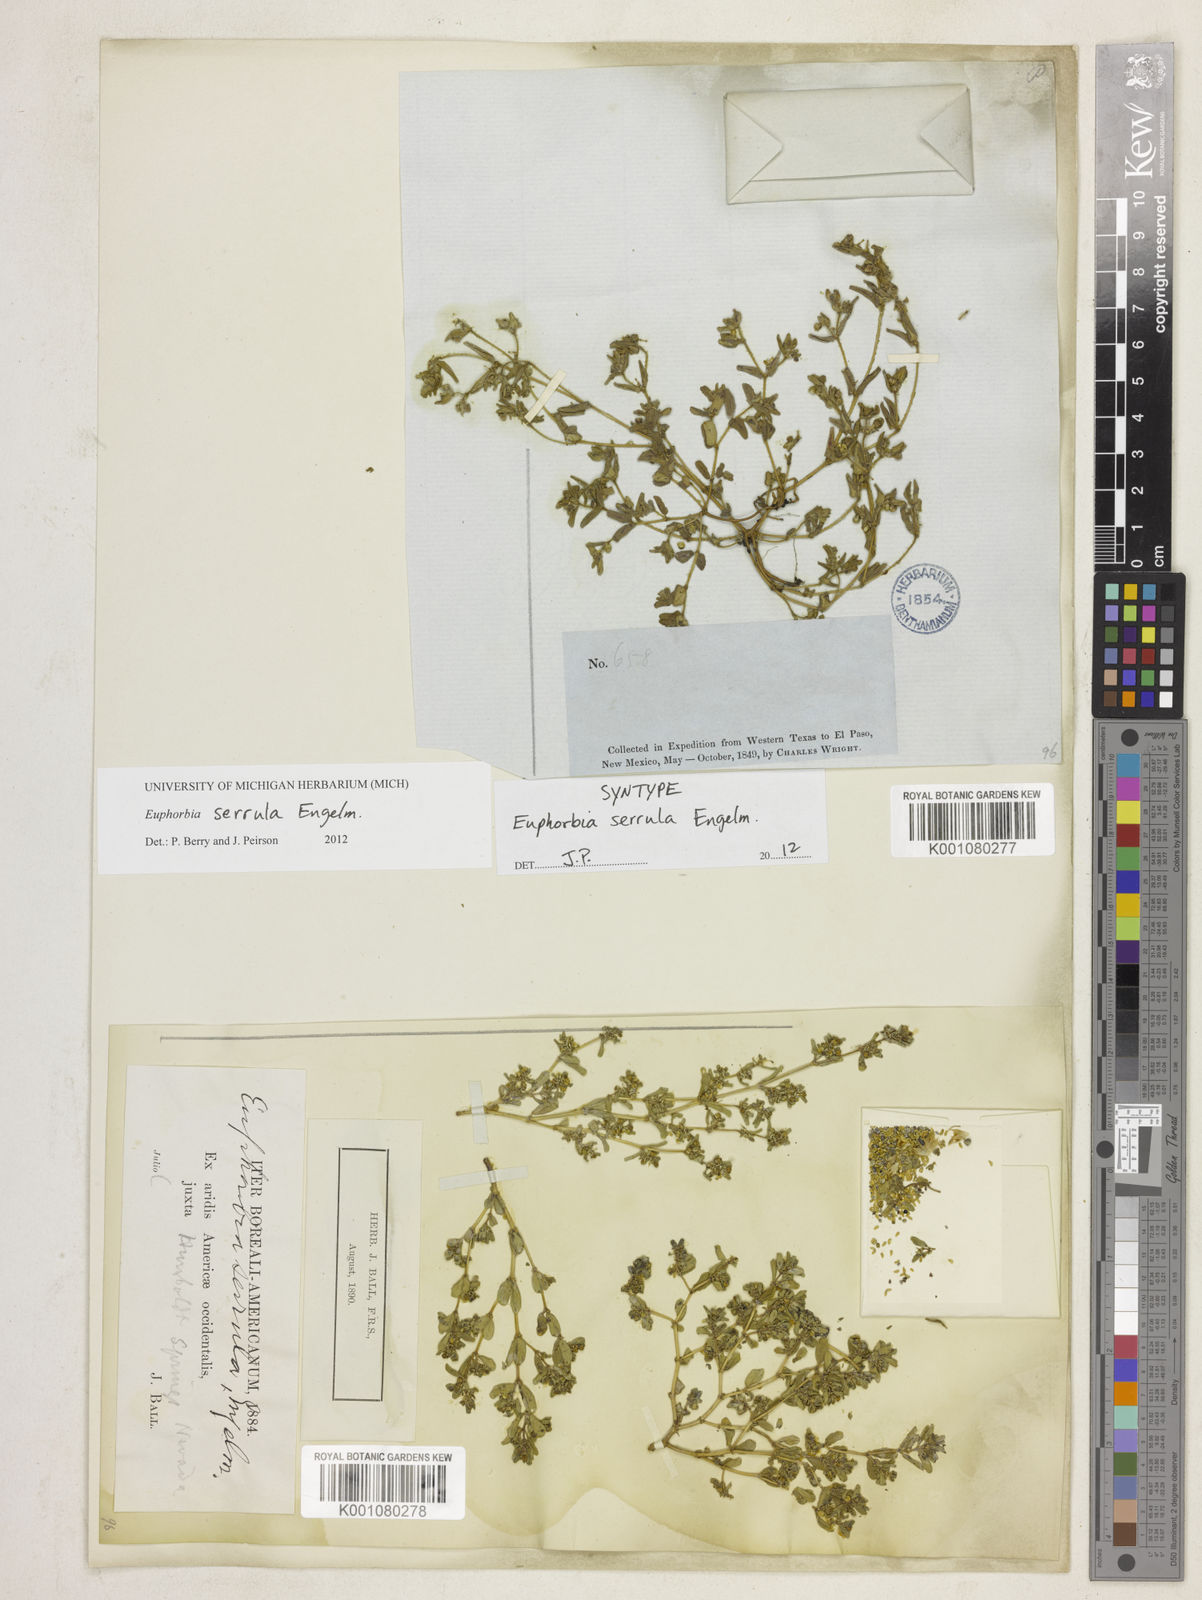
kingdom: Plantae
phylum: Tracheophyta
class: Magnoliopsida
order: Malpighiales
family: Euphorbiaceae
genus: Euphorbia
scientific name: Euphorbia serrula
